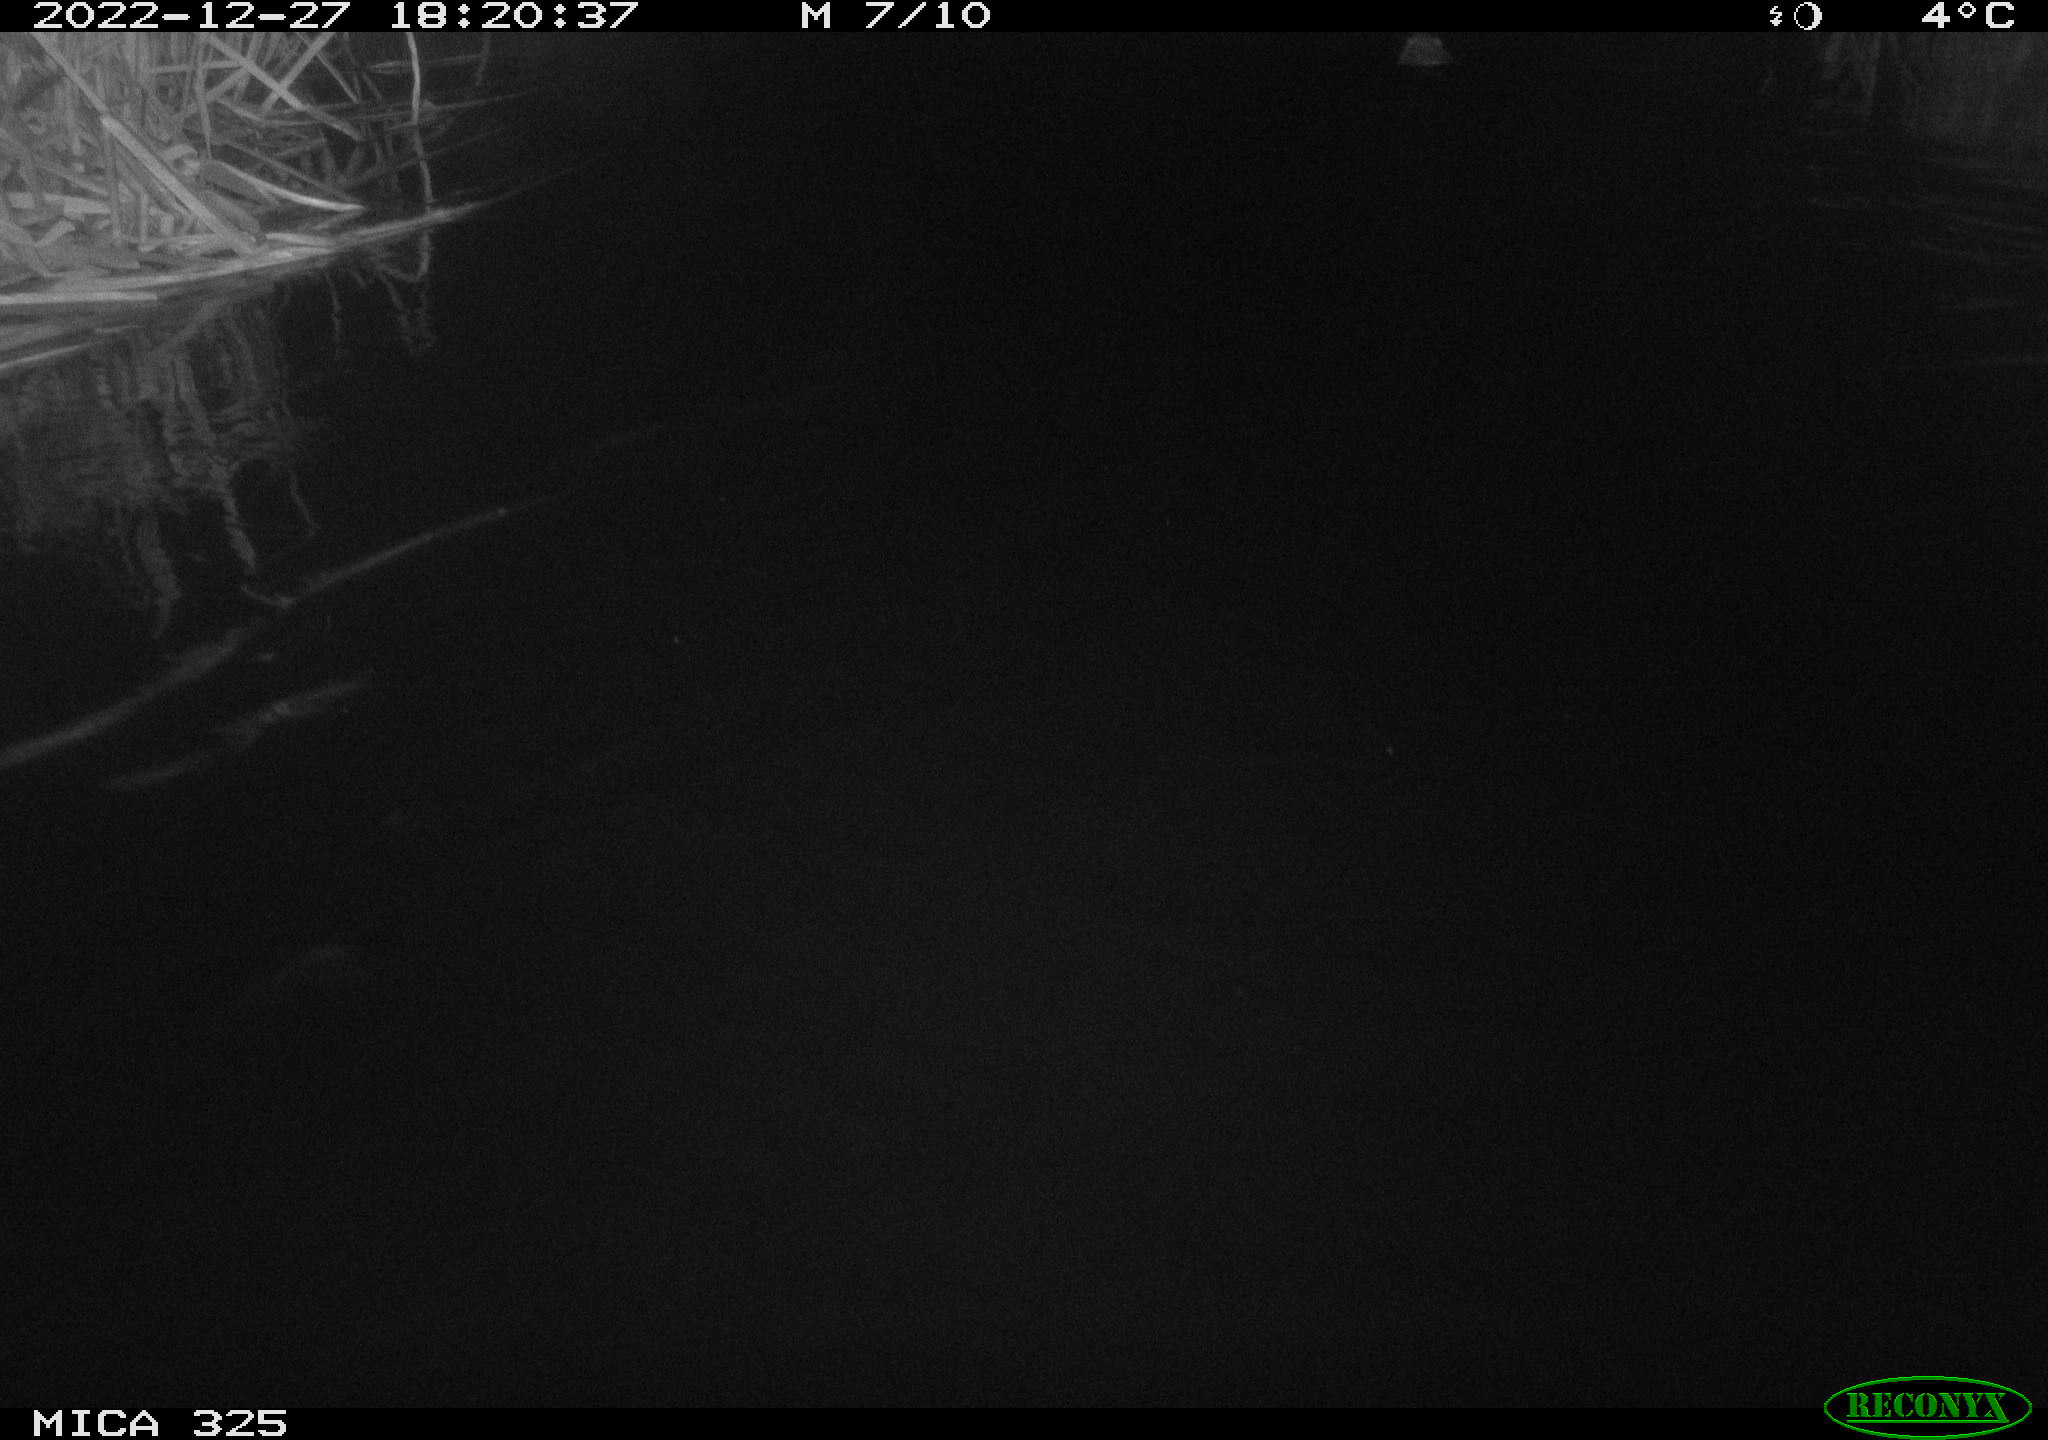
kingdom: Animalia
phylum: Chordata
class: Mammalia
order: Rodentia
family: Cricetidae
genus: Ondatra
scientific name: Ondatra zibethicus
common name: Muskrat
